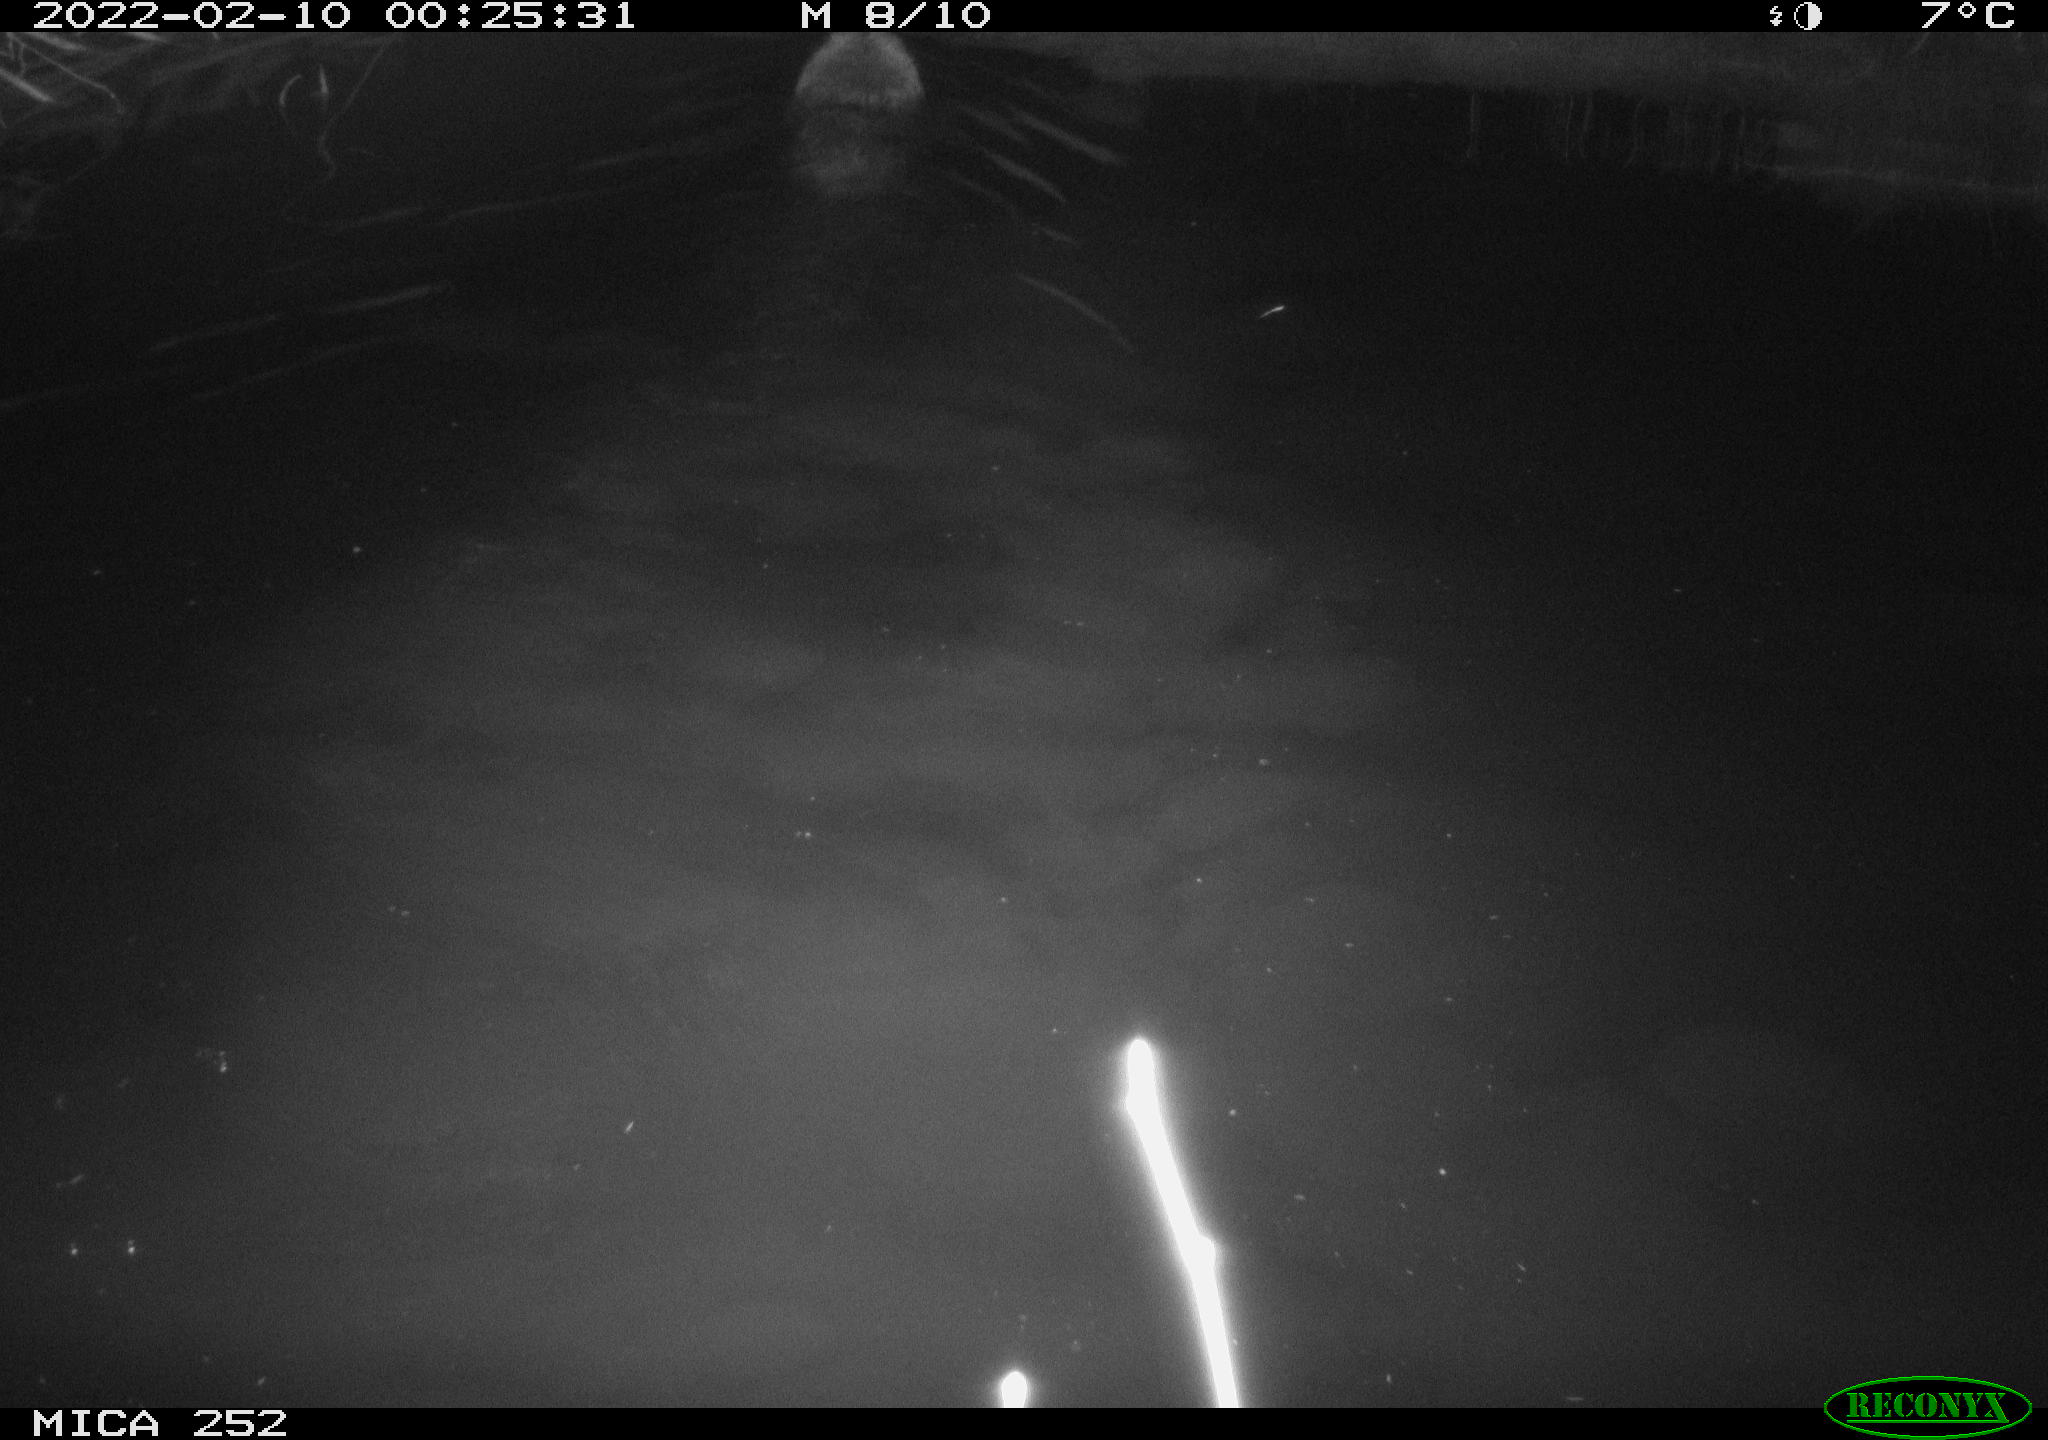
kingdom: Animalia
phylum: Chordata
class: Mammalia
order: Rodentia
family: Castoridae
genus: Castor
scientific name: Castor fiber
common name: Eurasian beaver
